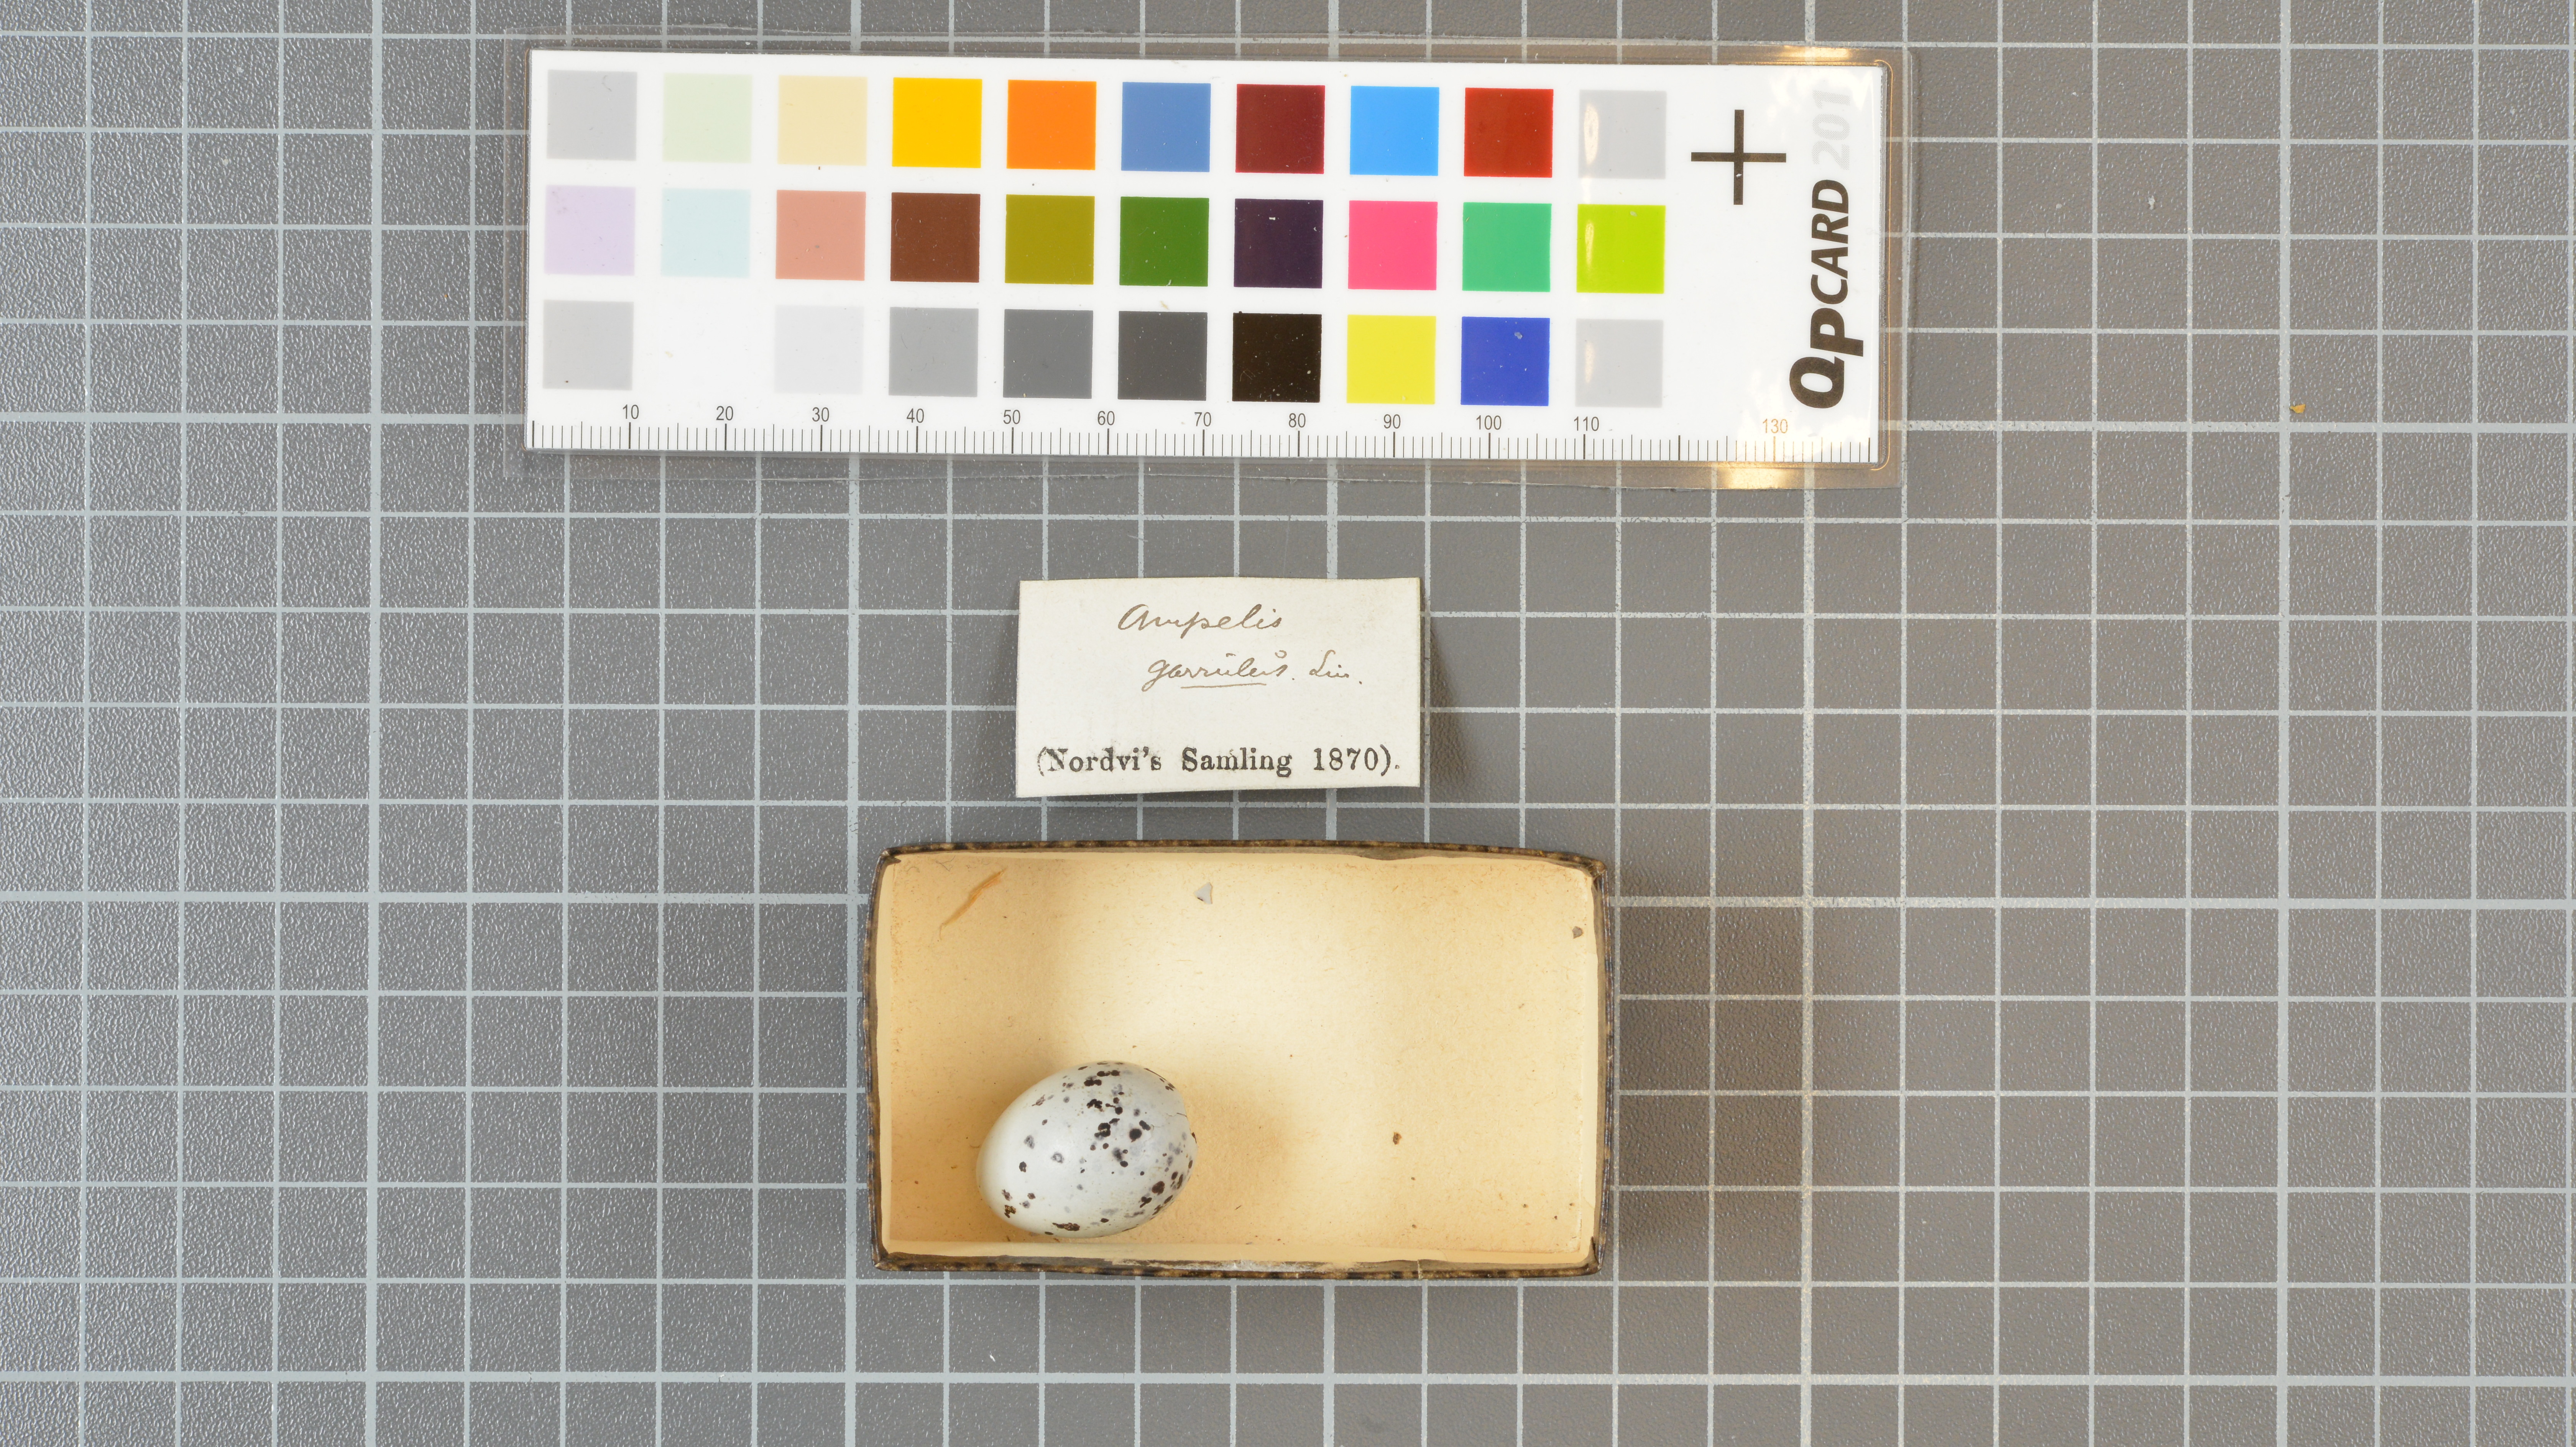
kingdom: Animalia
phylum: Chordata
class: Aves
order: Passeriformes
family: Bombycillidae
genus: Bombycilla
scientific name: Bombycilla garrulus
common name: Bohemian waxwing
